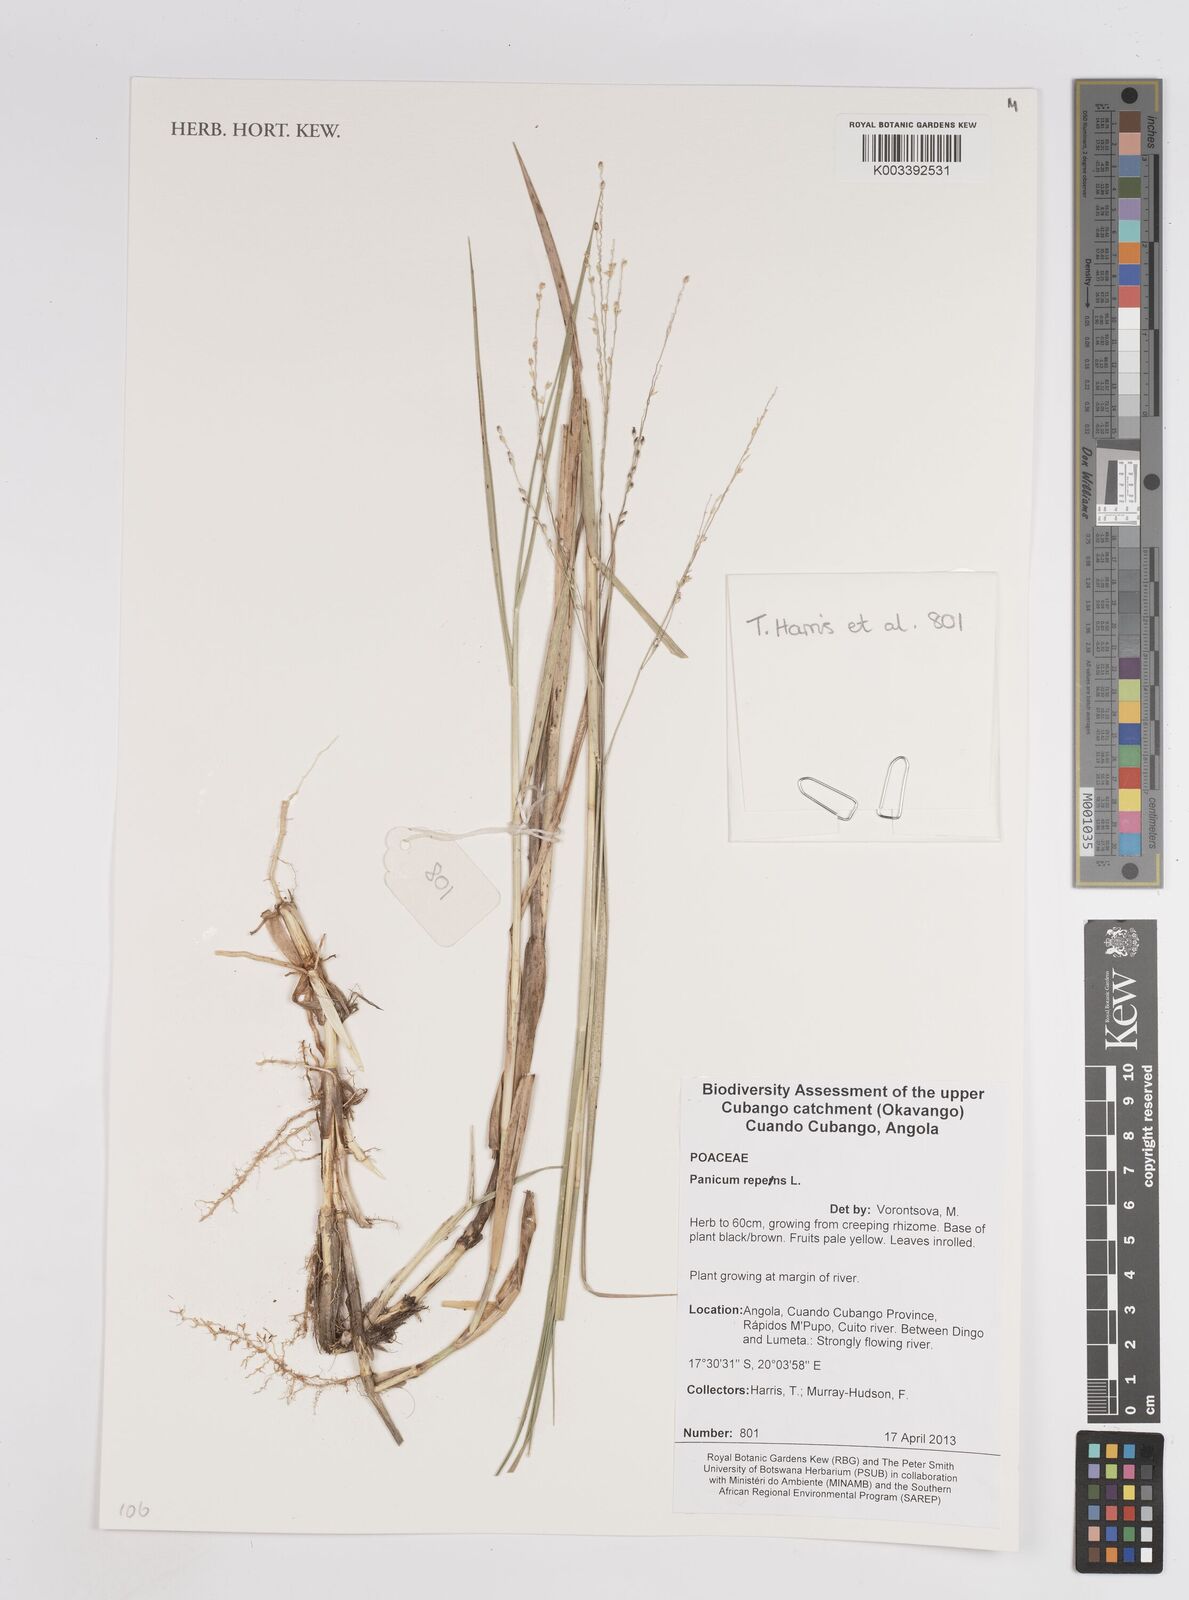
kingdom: Plantae
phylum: Tracheophyta
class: Liliopsida
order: Poales
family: Poaceae
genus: Panicum
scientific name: Panicum repens
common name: Torpedo grass
